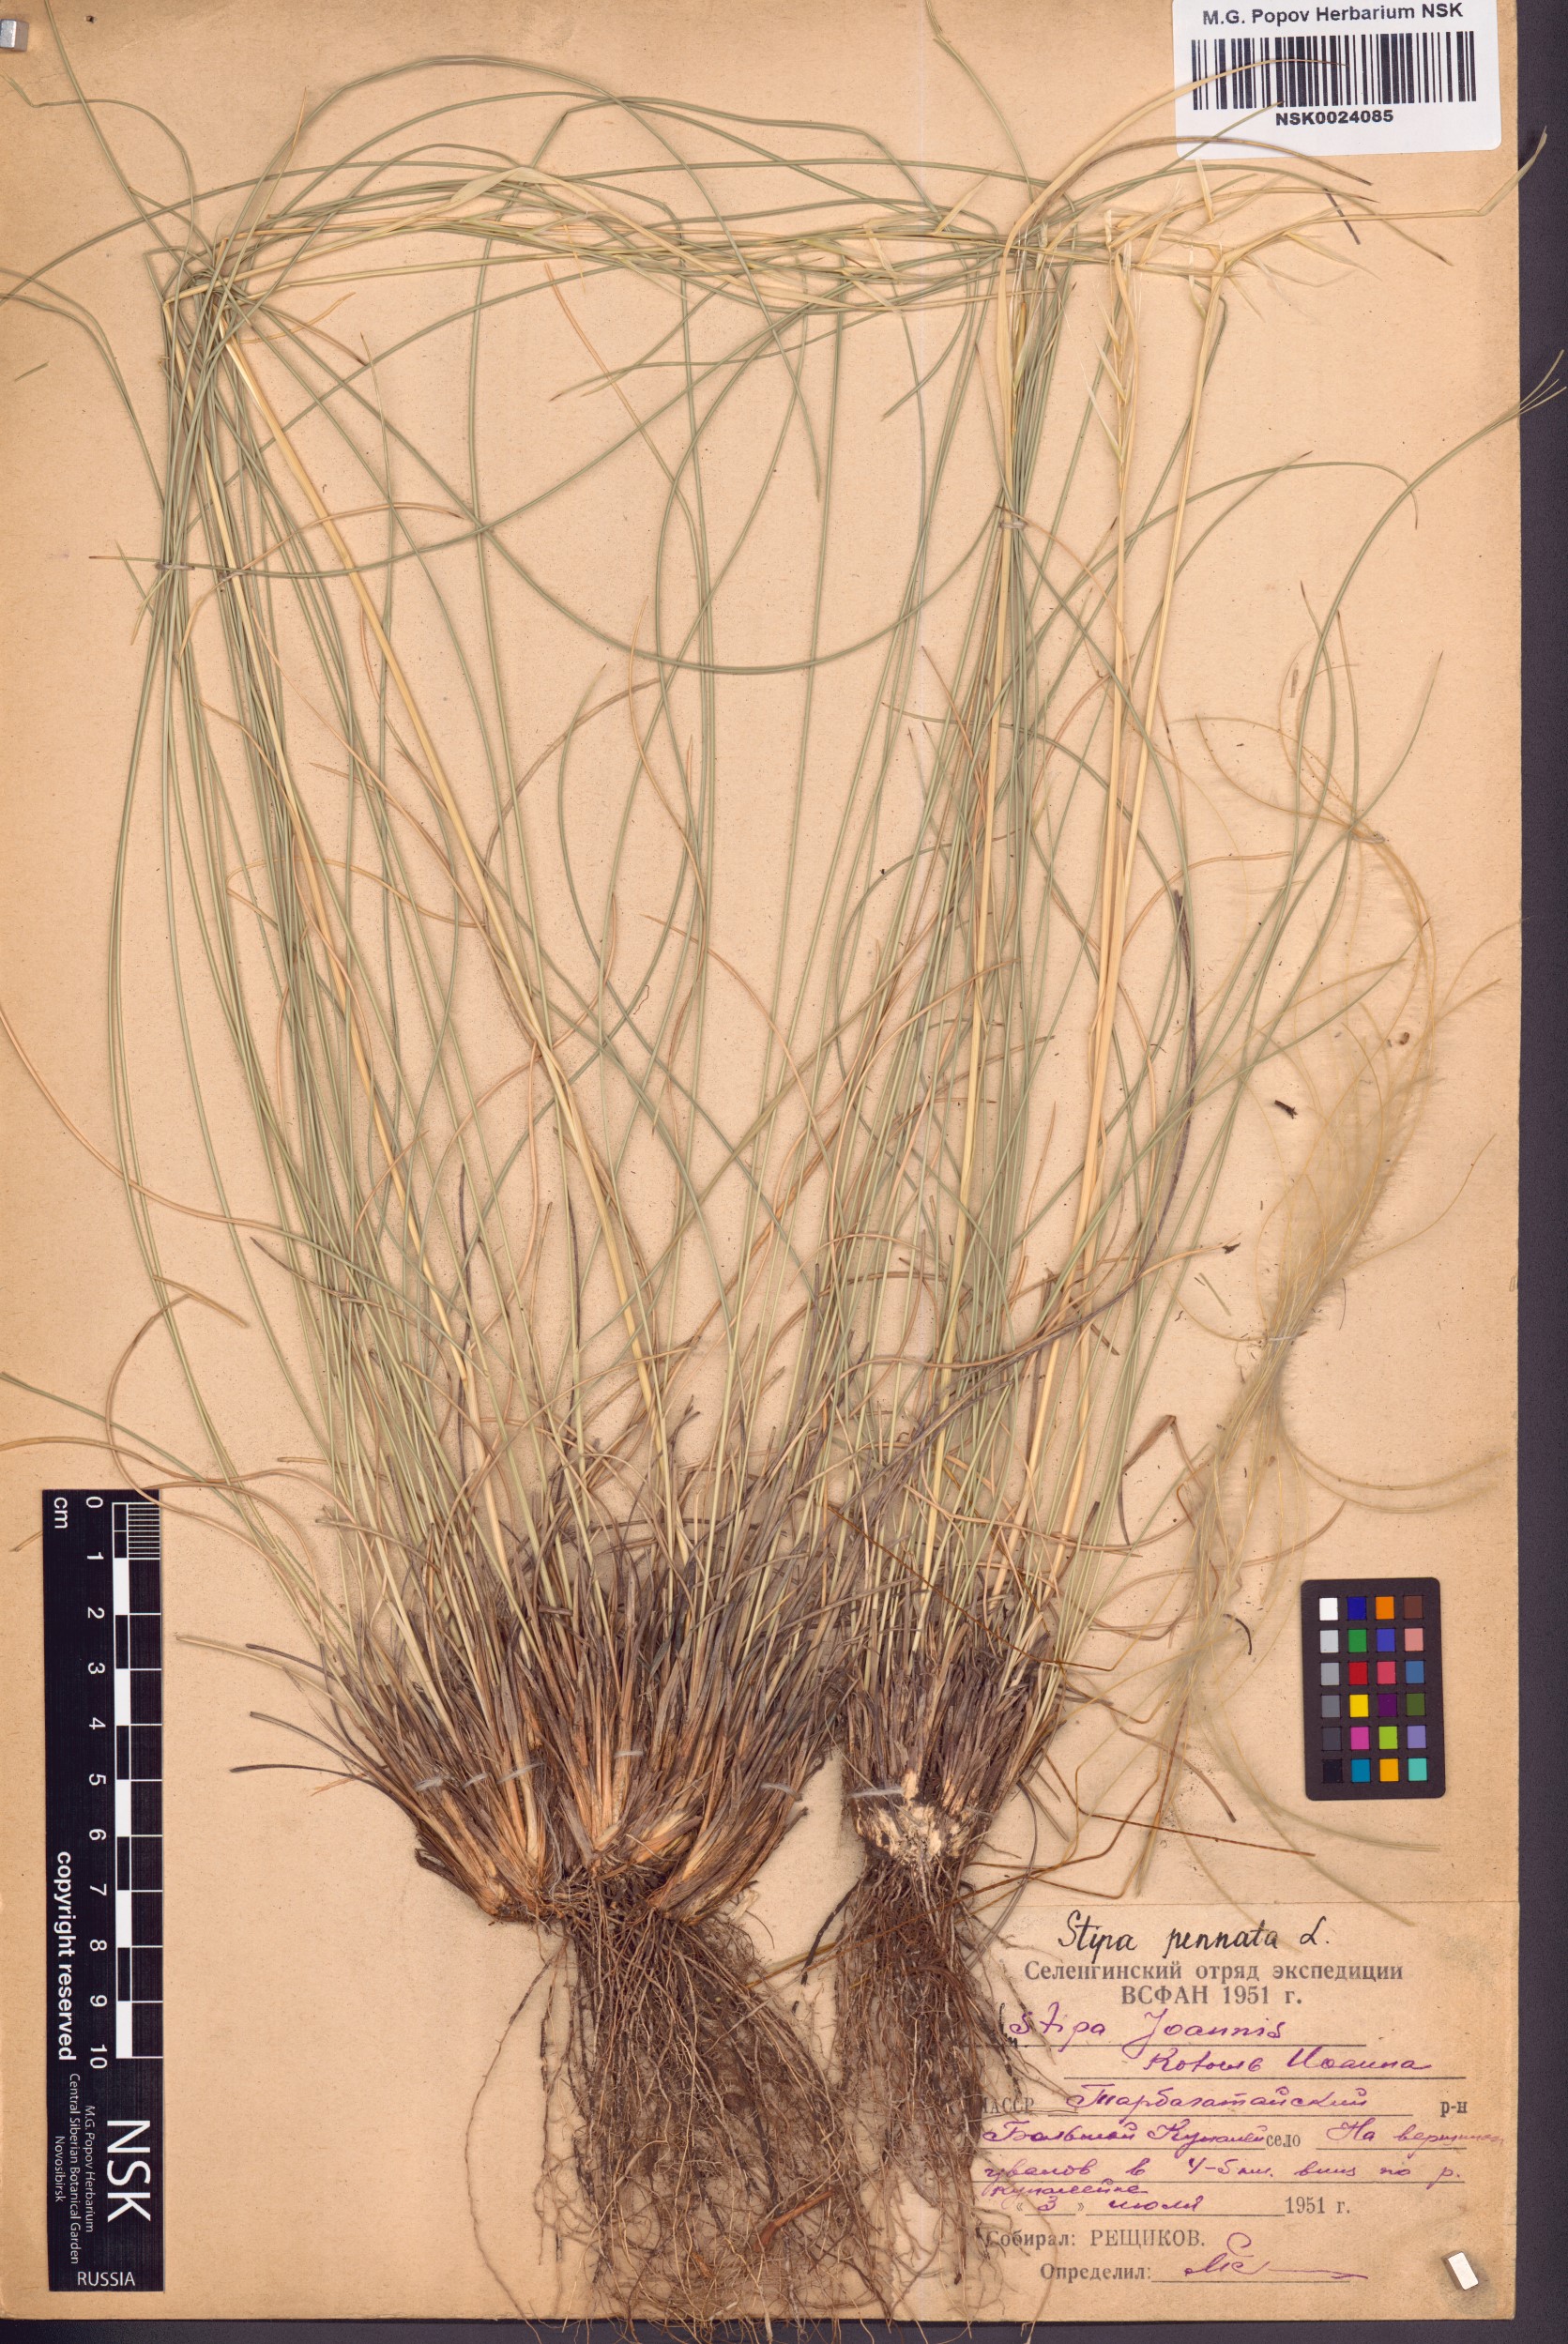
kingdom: Plantae
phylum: Tracheophyta
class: Liliopsida
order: Poales
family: Poaceae
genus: Stipa
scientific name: Stipa pennata
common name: European feather grass
